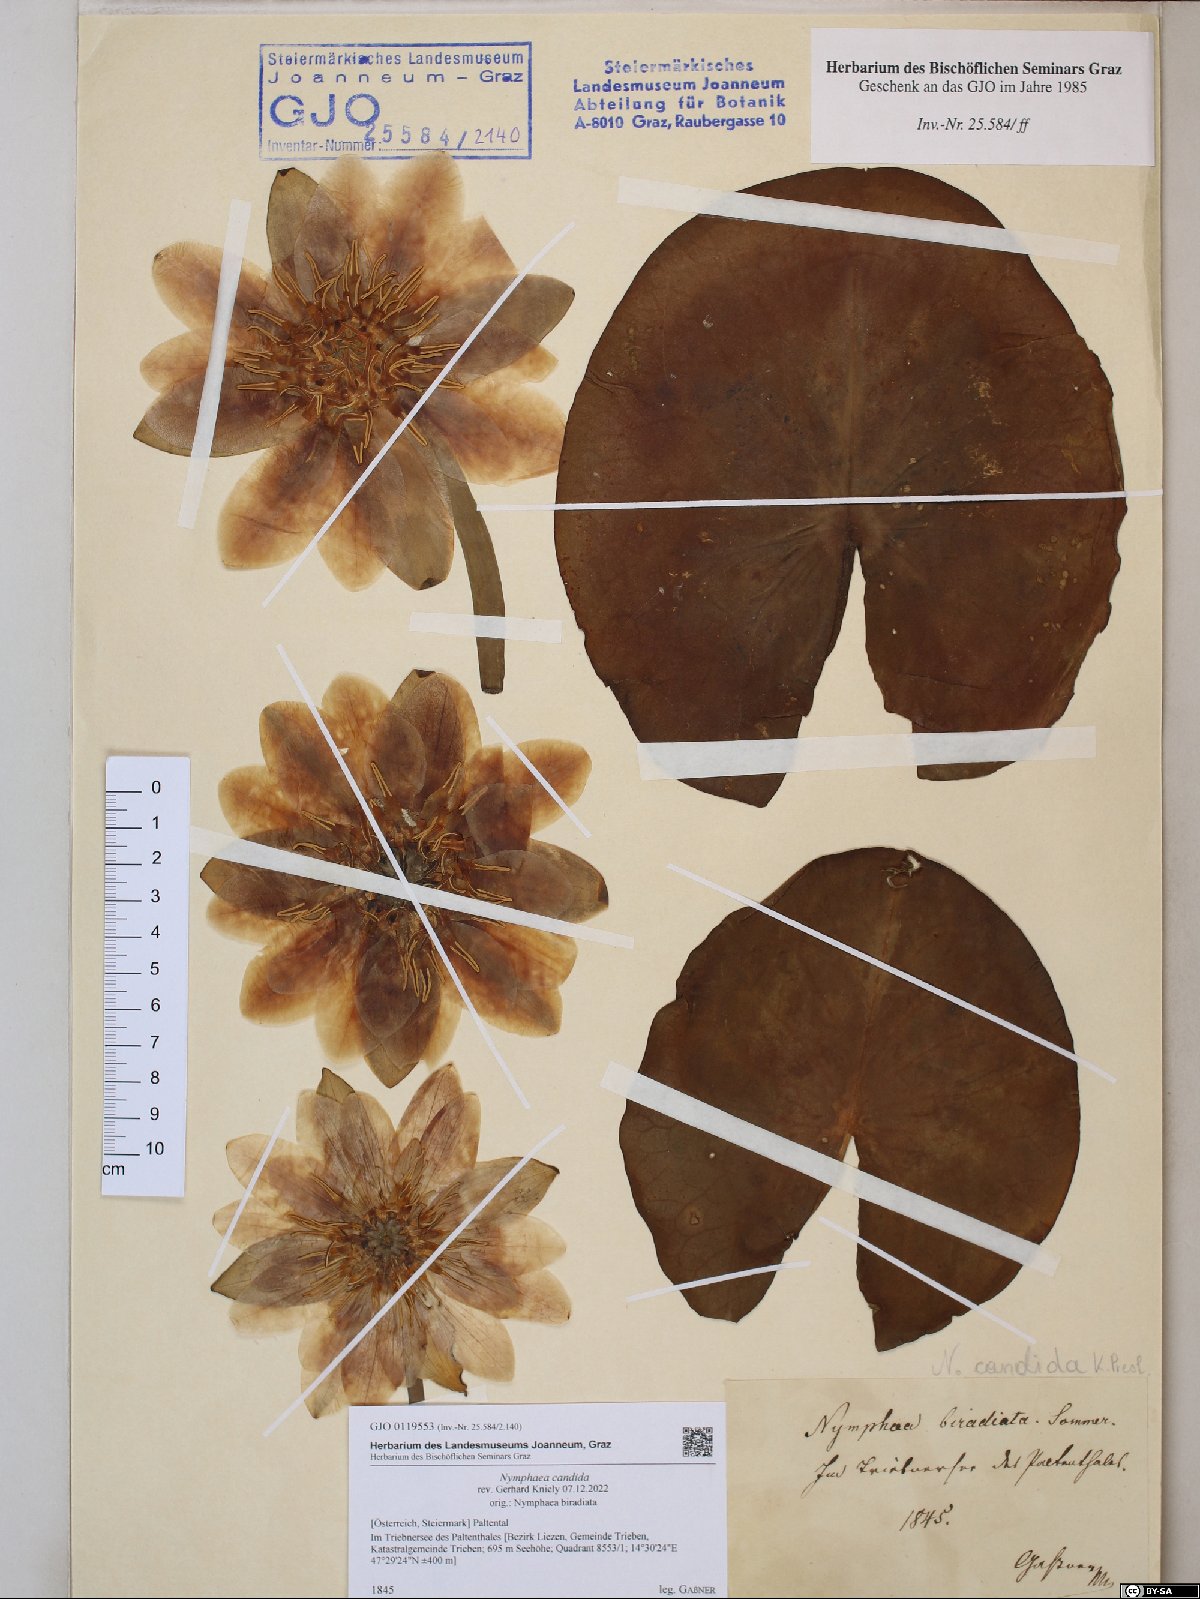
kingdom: Plantae
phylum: Tracheophyta
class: Magnoliopsida
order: Nymphaeales
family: Nymphaeaceae
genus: Nymphaea
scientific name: Nymphaea candida
